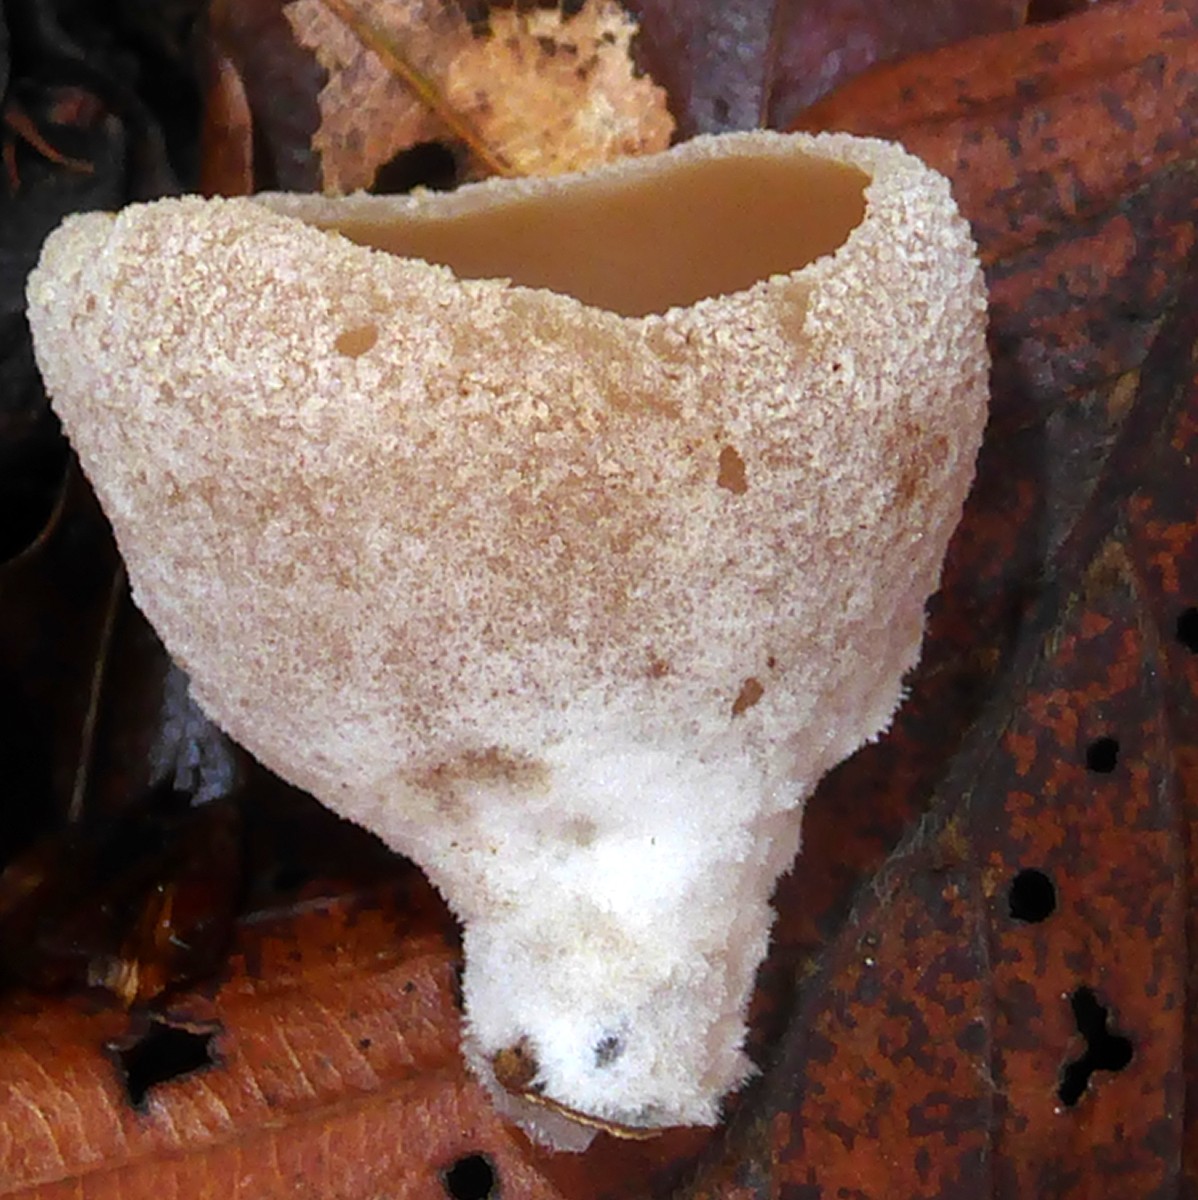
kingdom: Fungi
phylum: Ascomycota
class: Pezizomycetes
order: Pezizales
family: Pezizaceae
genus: Peziza
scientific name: Peziza
